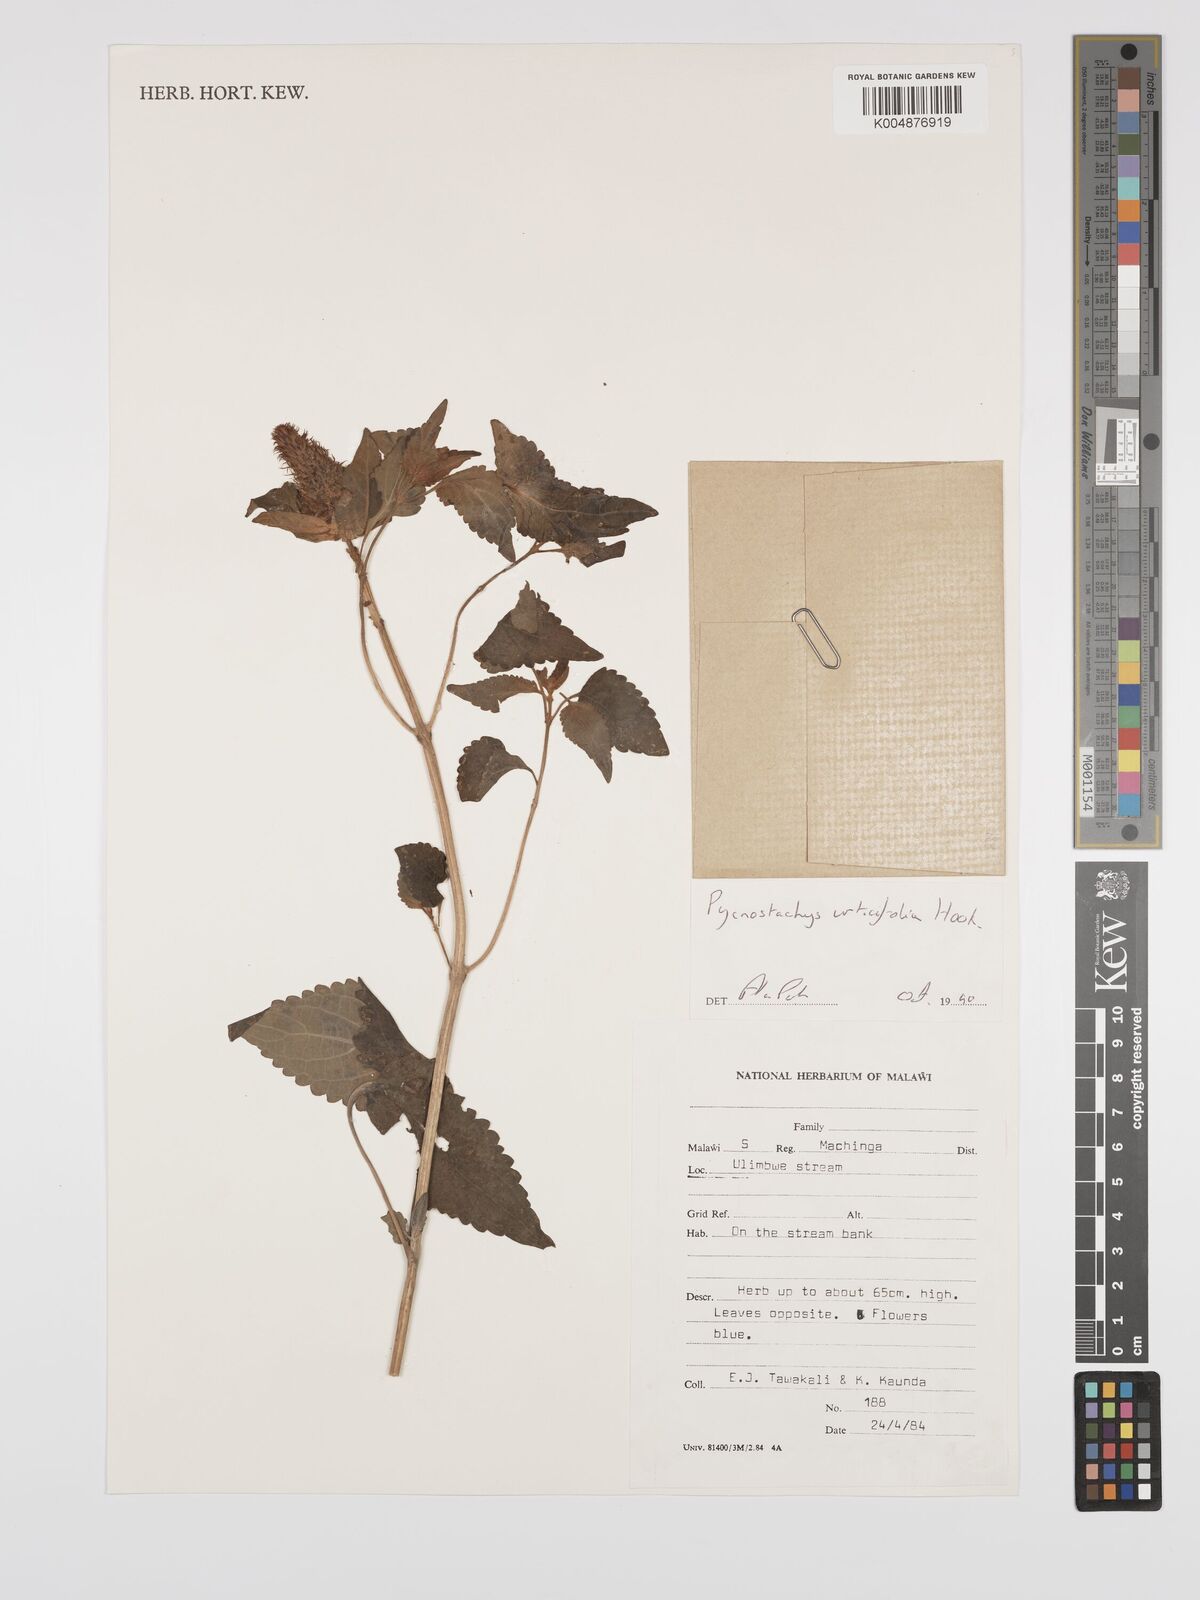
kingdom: Plantae
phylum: Tracheophyta
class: Magnoliopsida
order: Lamiales
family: Lamiaceae
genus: Coleus
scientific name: Coleus livingstonei
